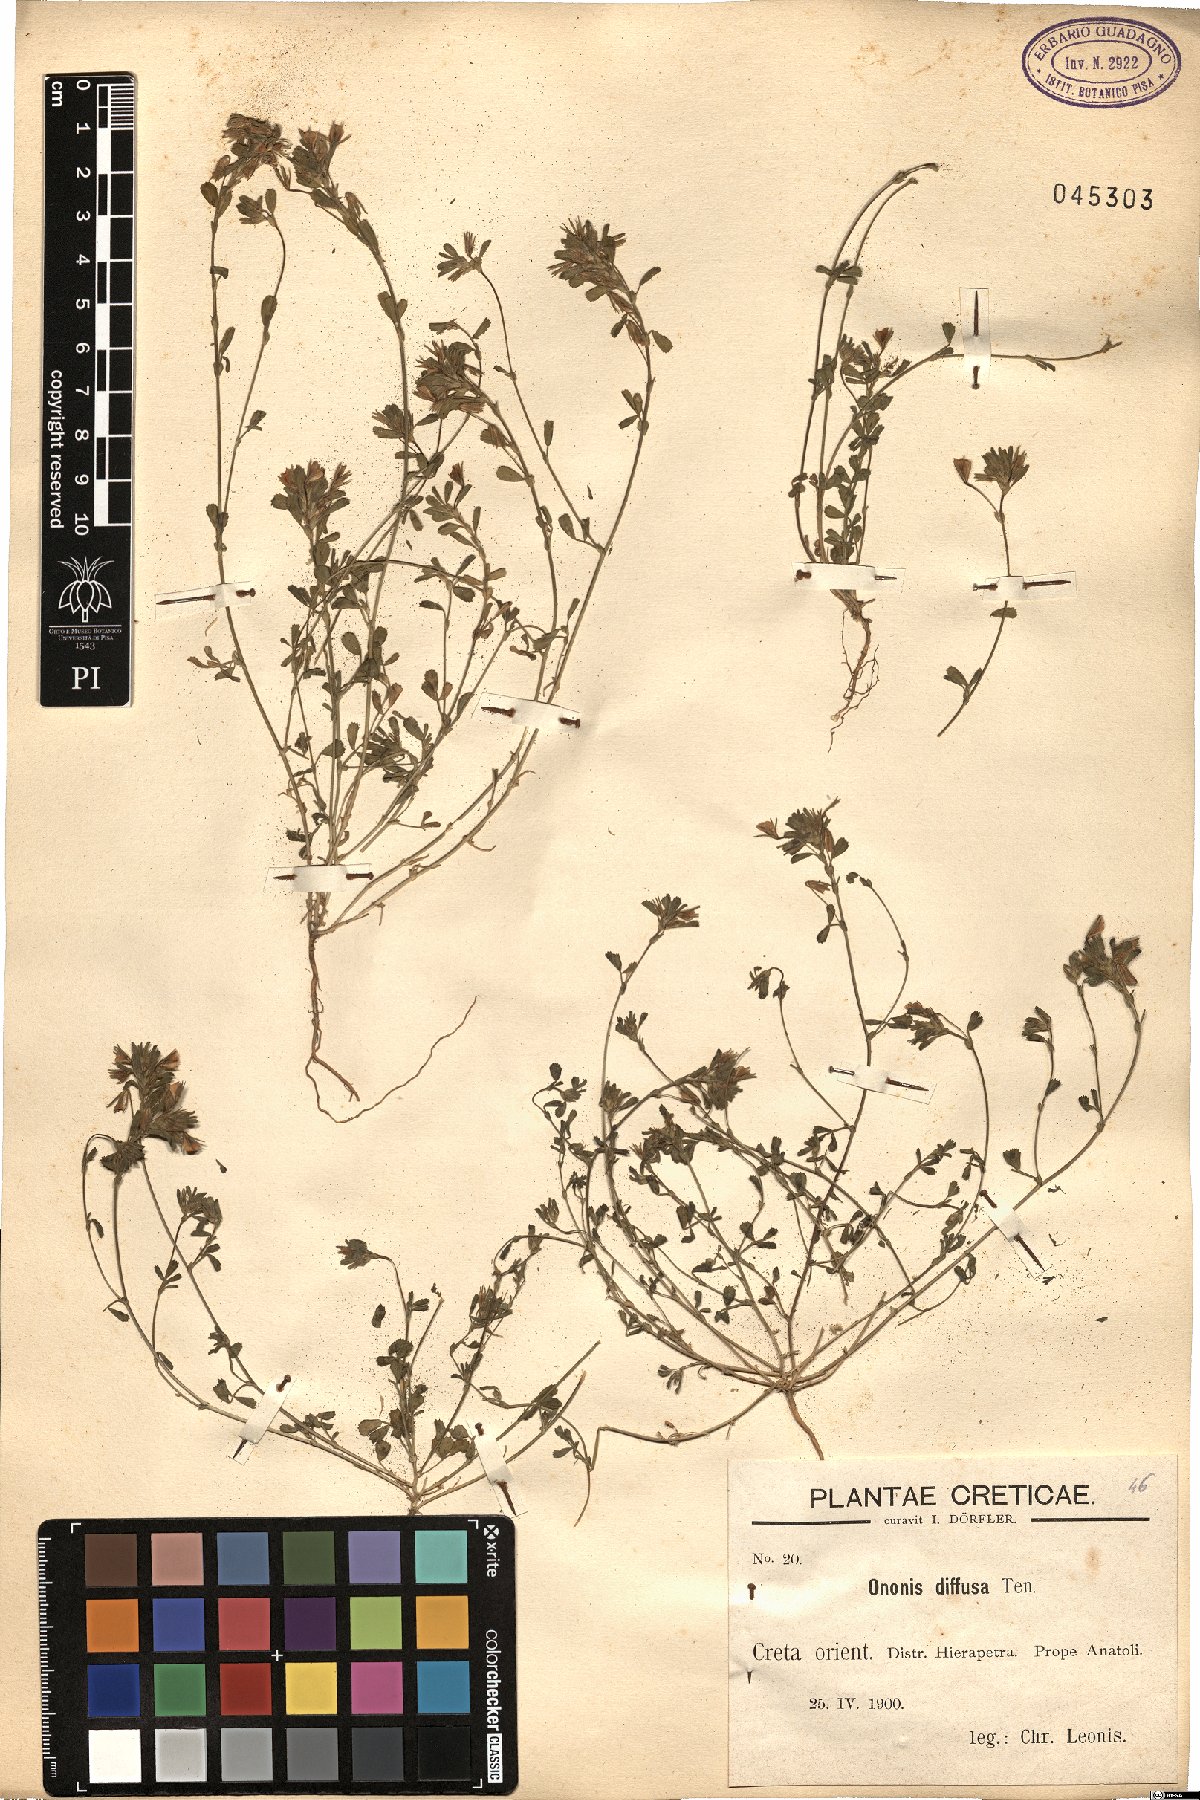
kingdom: Plantae
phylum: Tracheophyta
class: Magnoliopsida
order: Fabales
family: Fabaceae
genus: Ononis
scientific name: Ononis diffusa
